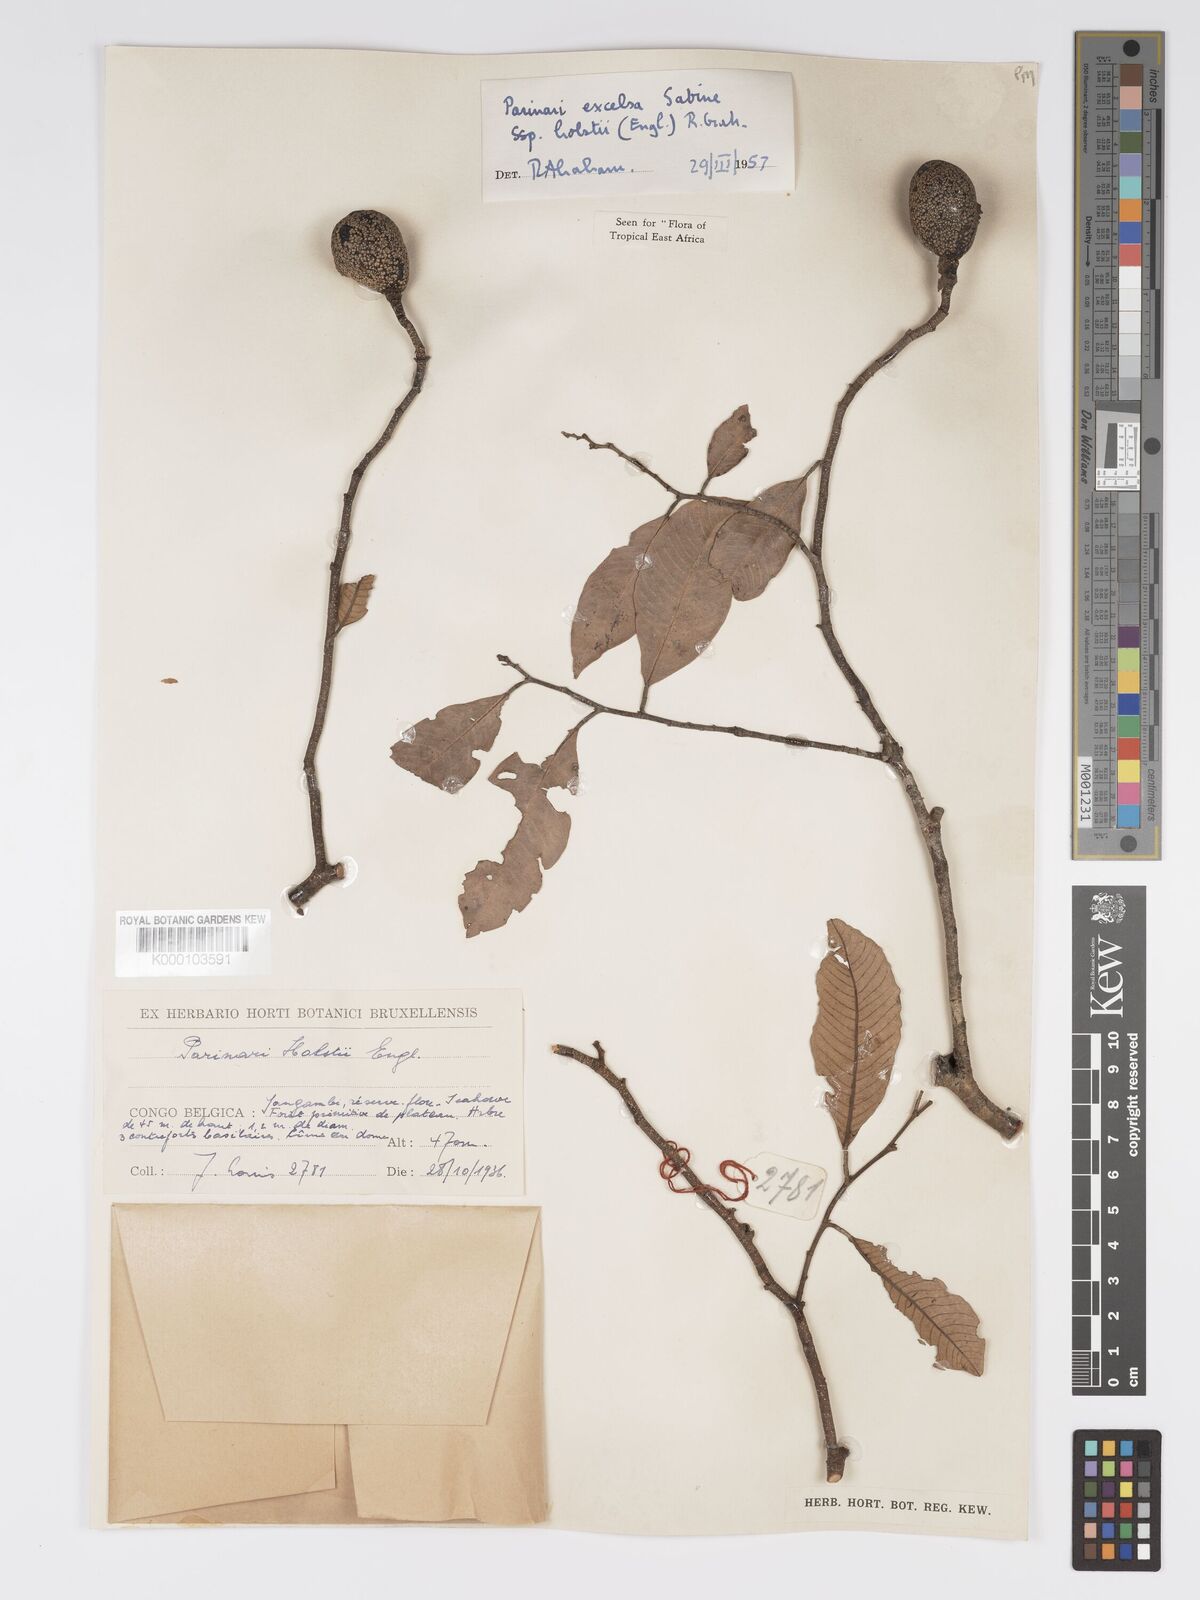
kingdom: Plantae
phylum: Tracheophyta
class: Magnoliopsida
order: Malpighiales
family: Chrysobalanaceae
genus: Parinari
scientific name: Parinari excelsa
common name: Guinea-plum
